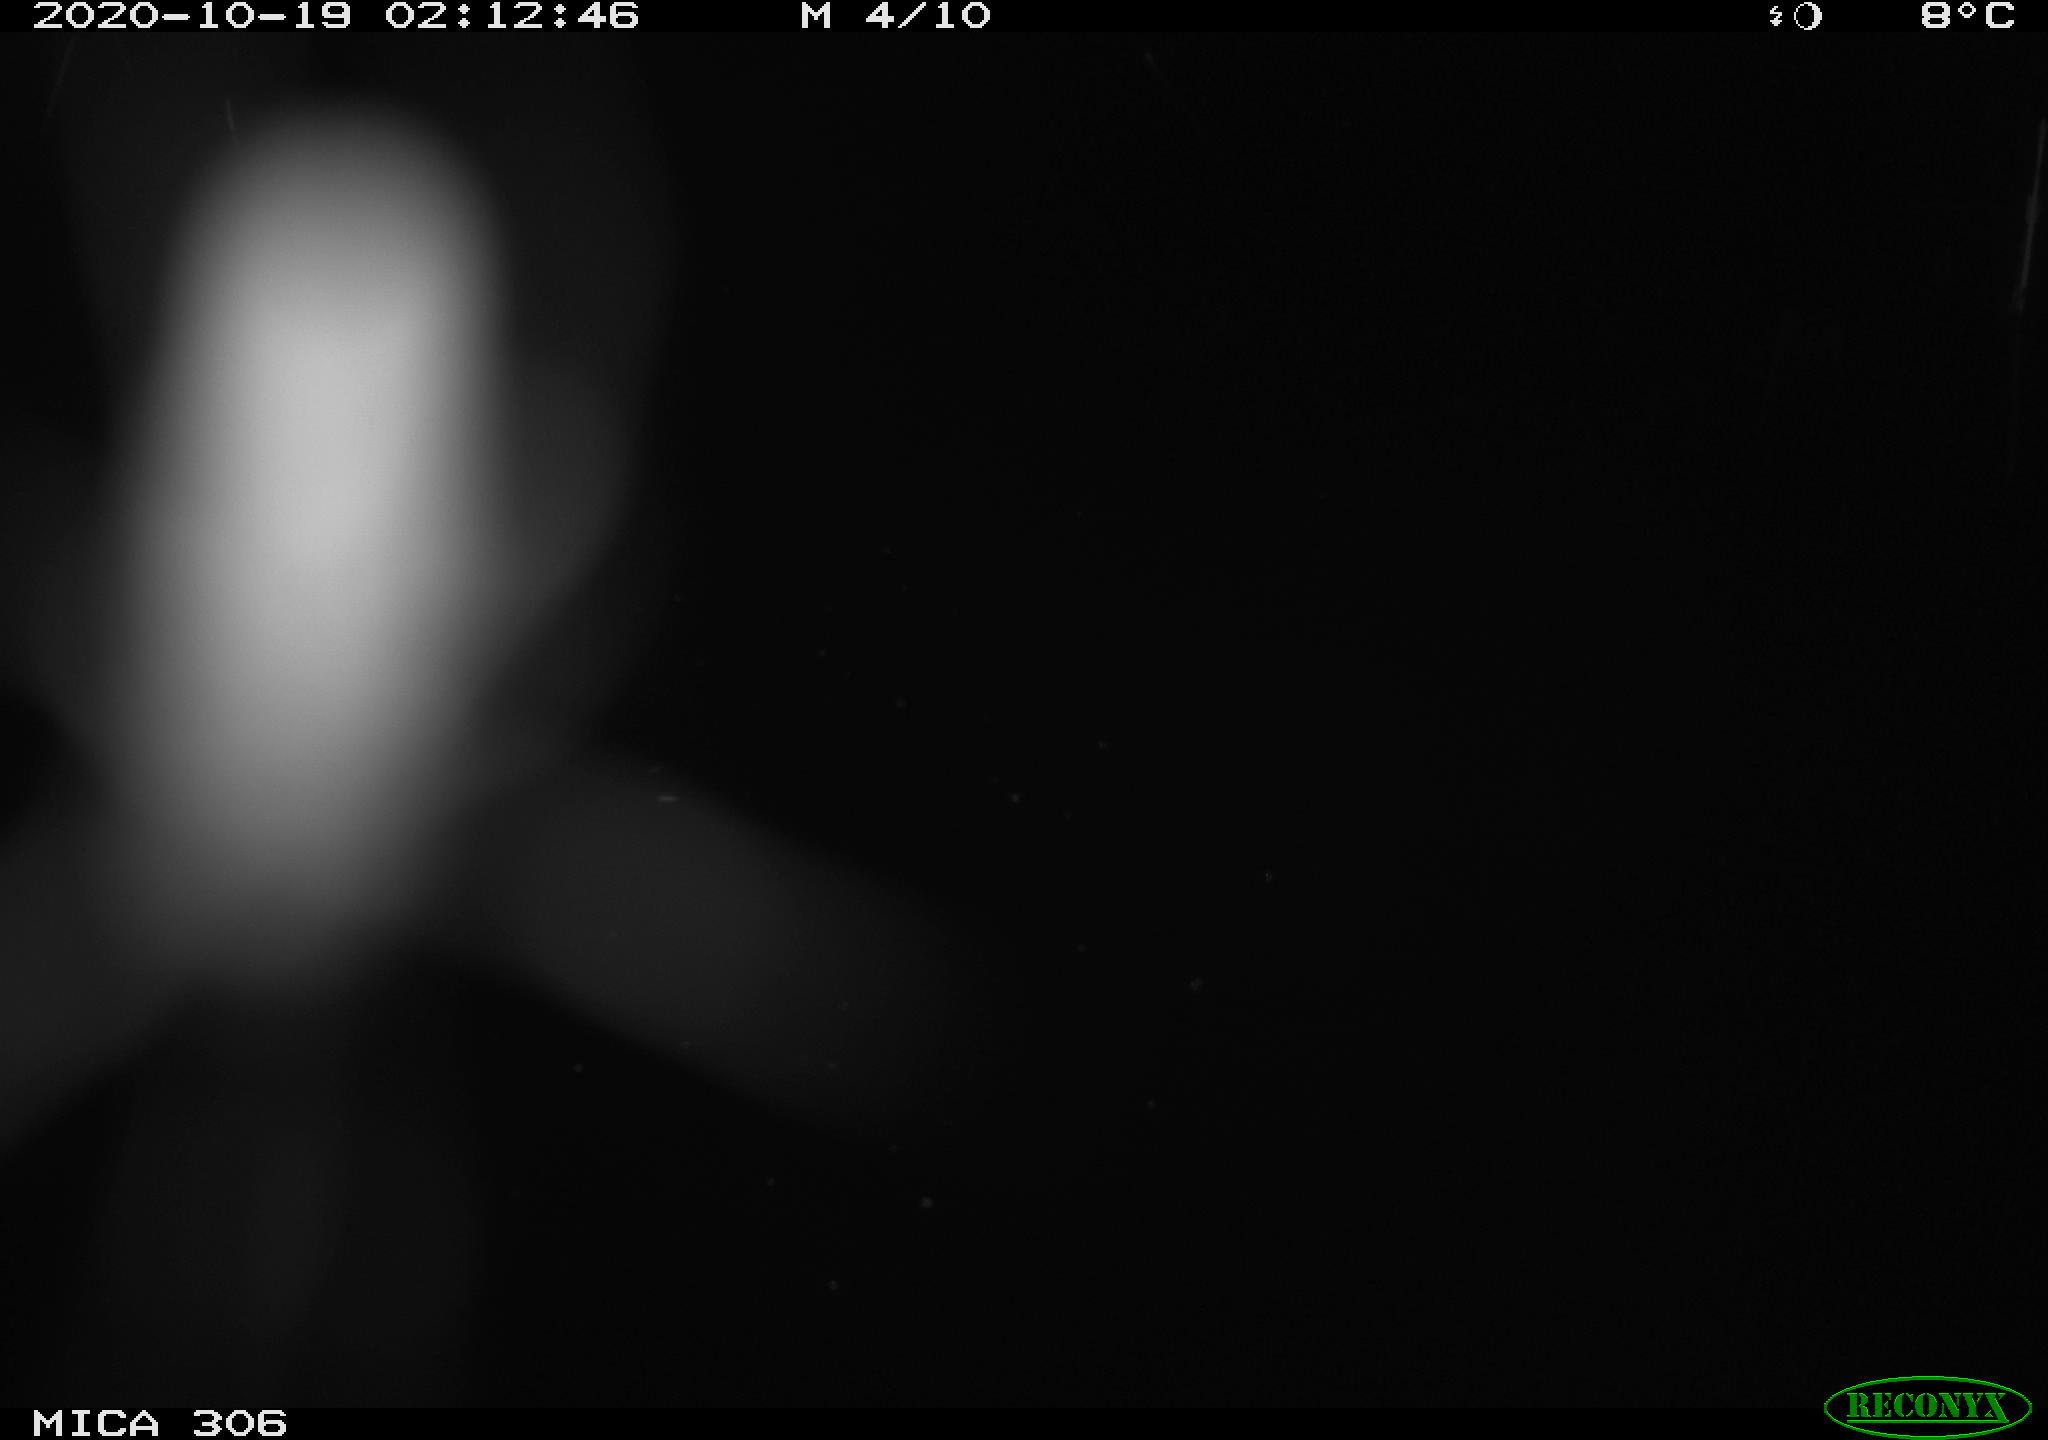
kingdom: Animalia
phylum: Chordata
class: Mammalia
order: Rodentia
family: Muridae
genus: Rattus
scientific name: Rattus norvegicus
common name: Brown rat
